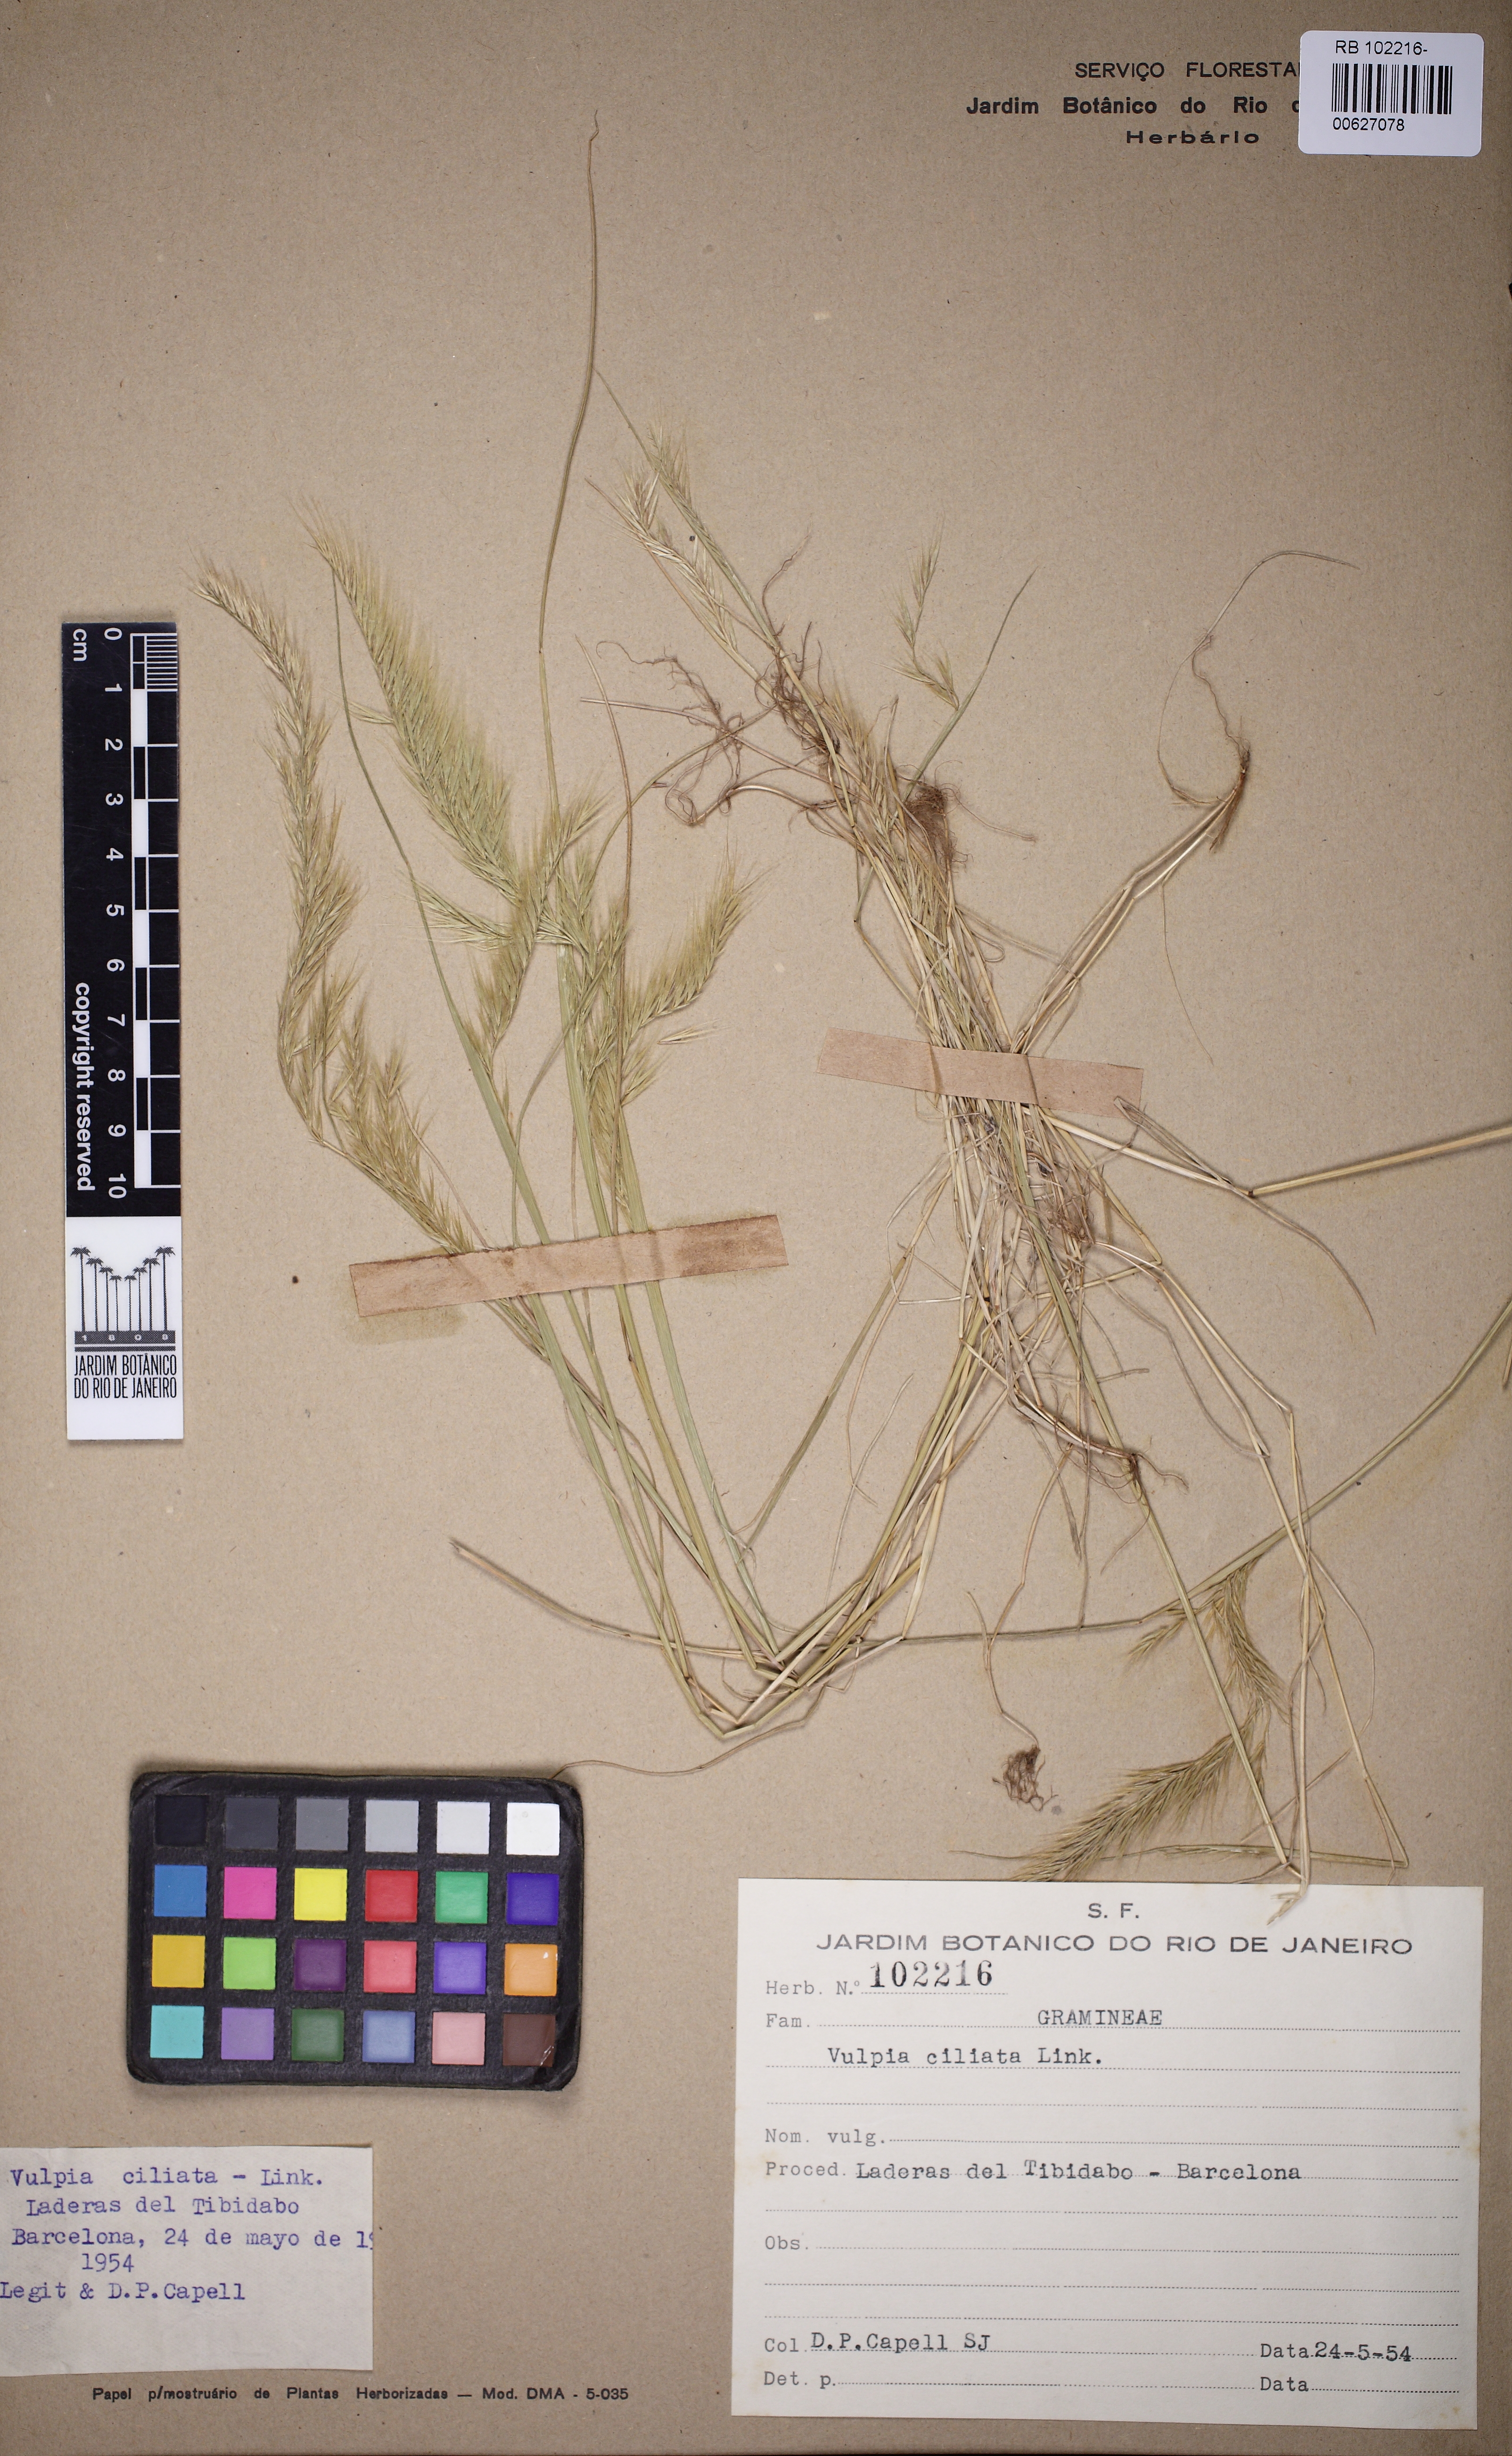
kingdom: Plantae
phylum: Tracheophyta
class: Liliopsida
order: Poales
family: Poaceae
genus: Festuca
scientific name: Festuca ambigua
